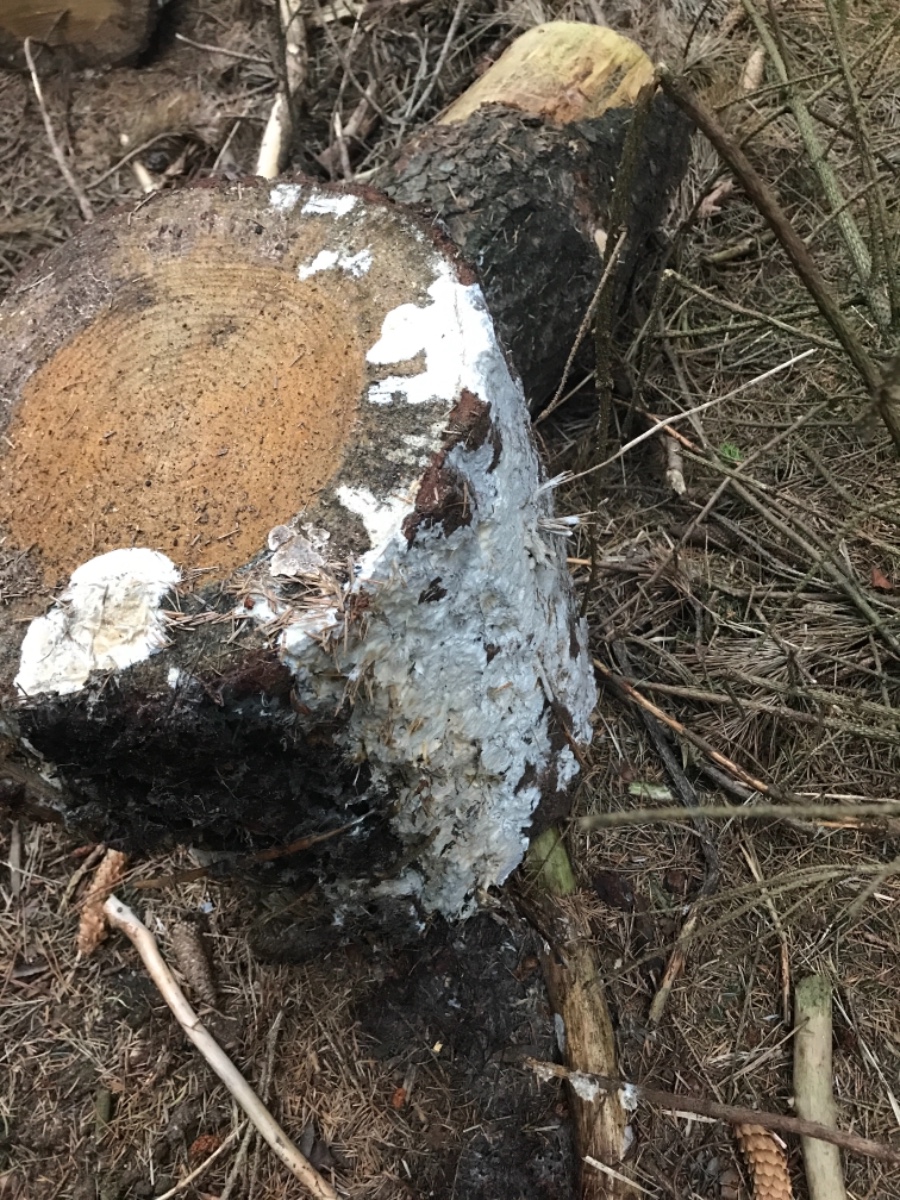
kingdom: Fungi
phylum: Basidiomycota
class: Agaricomycetes
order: Corticiales
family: Corticiaceae
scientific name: Corticiaceae
